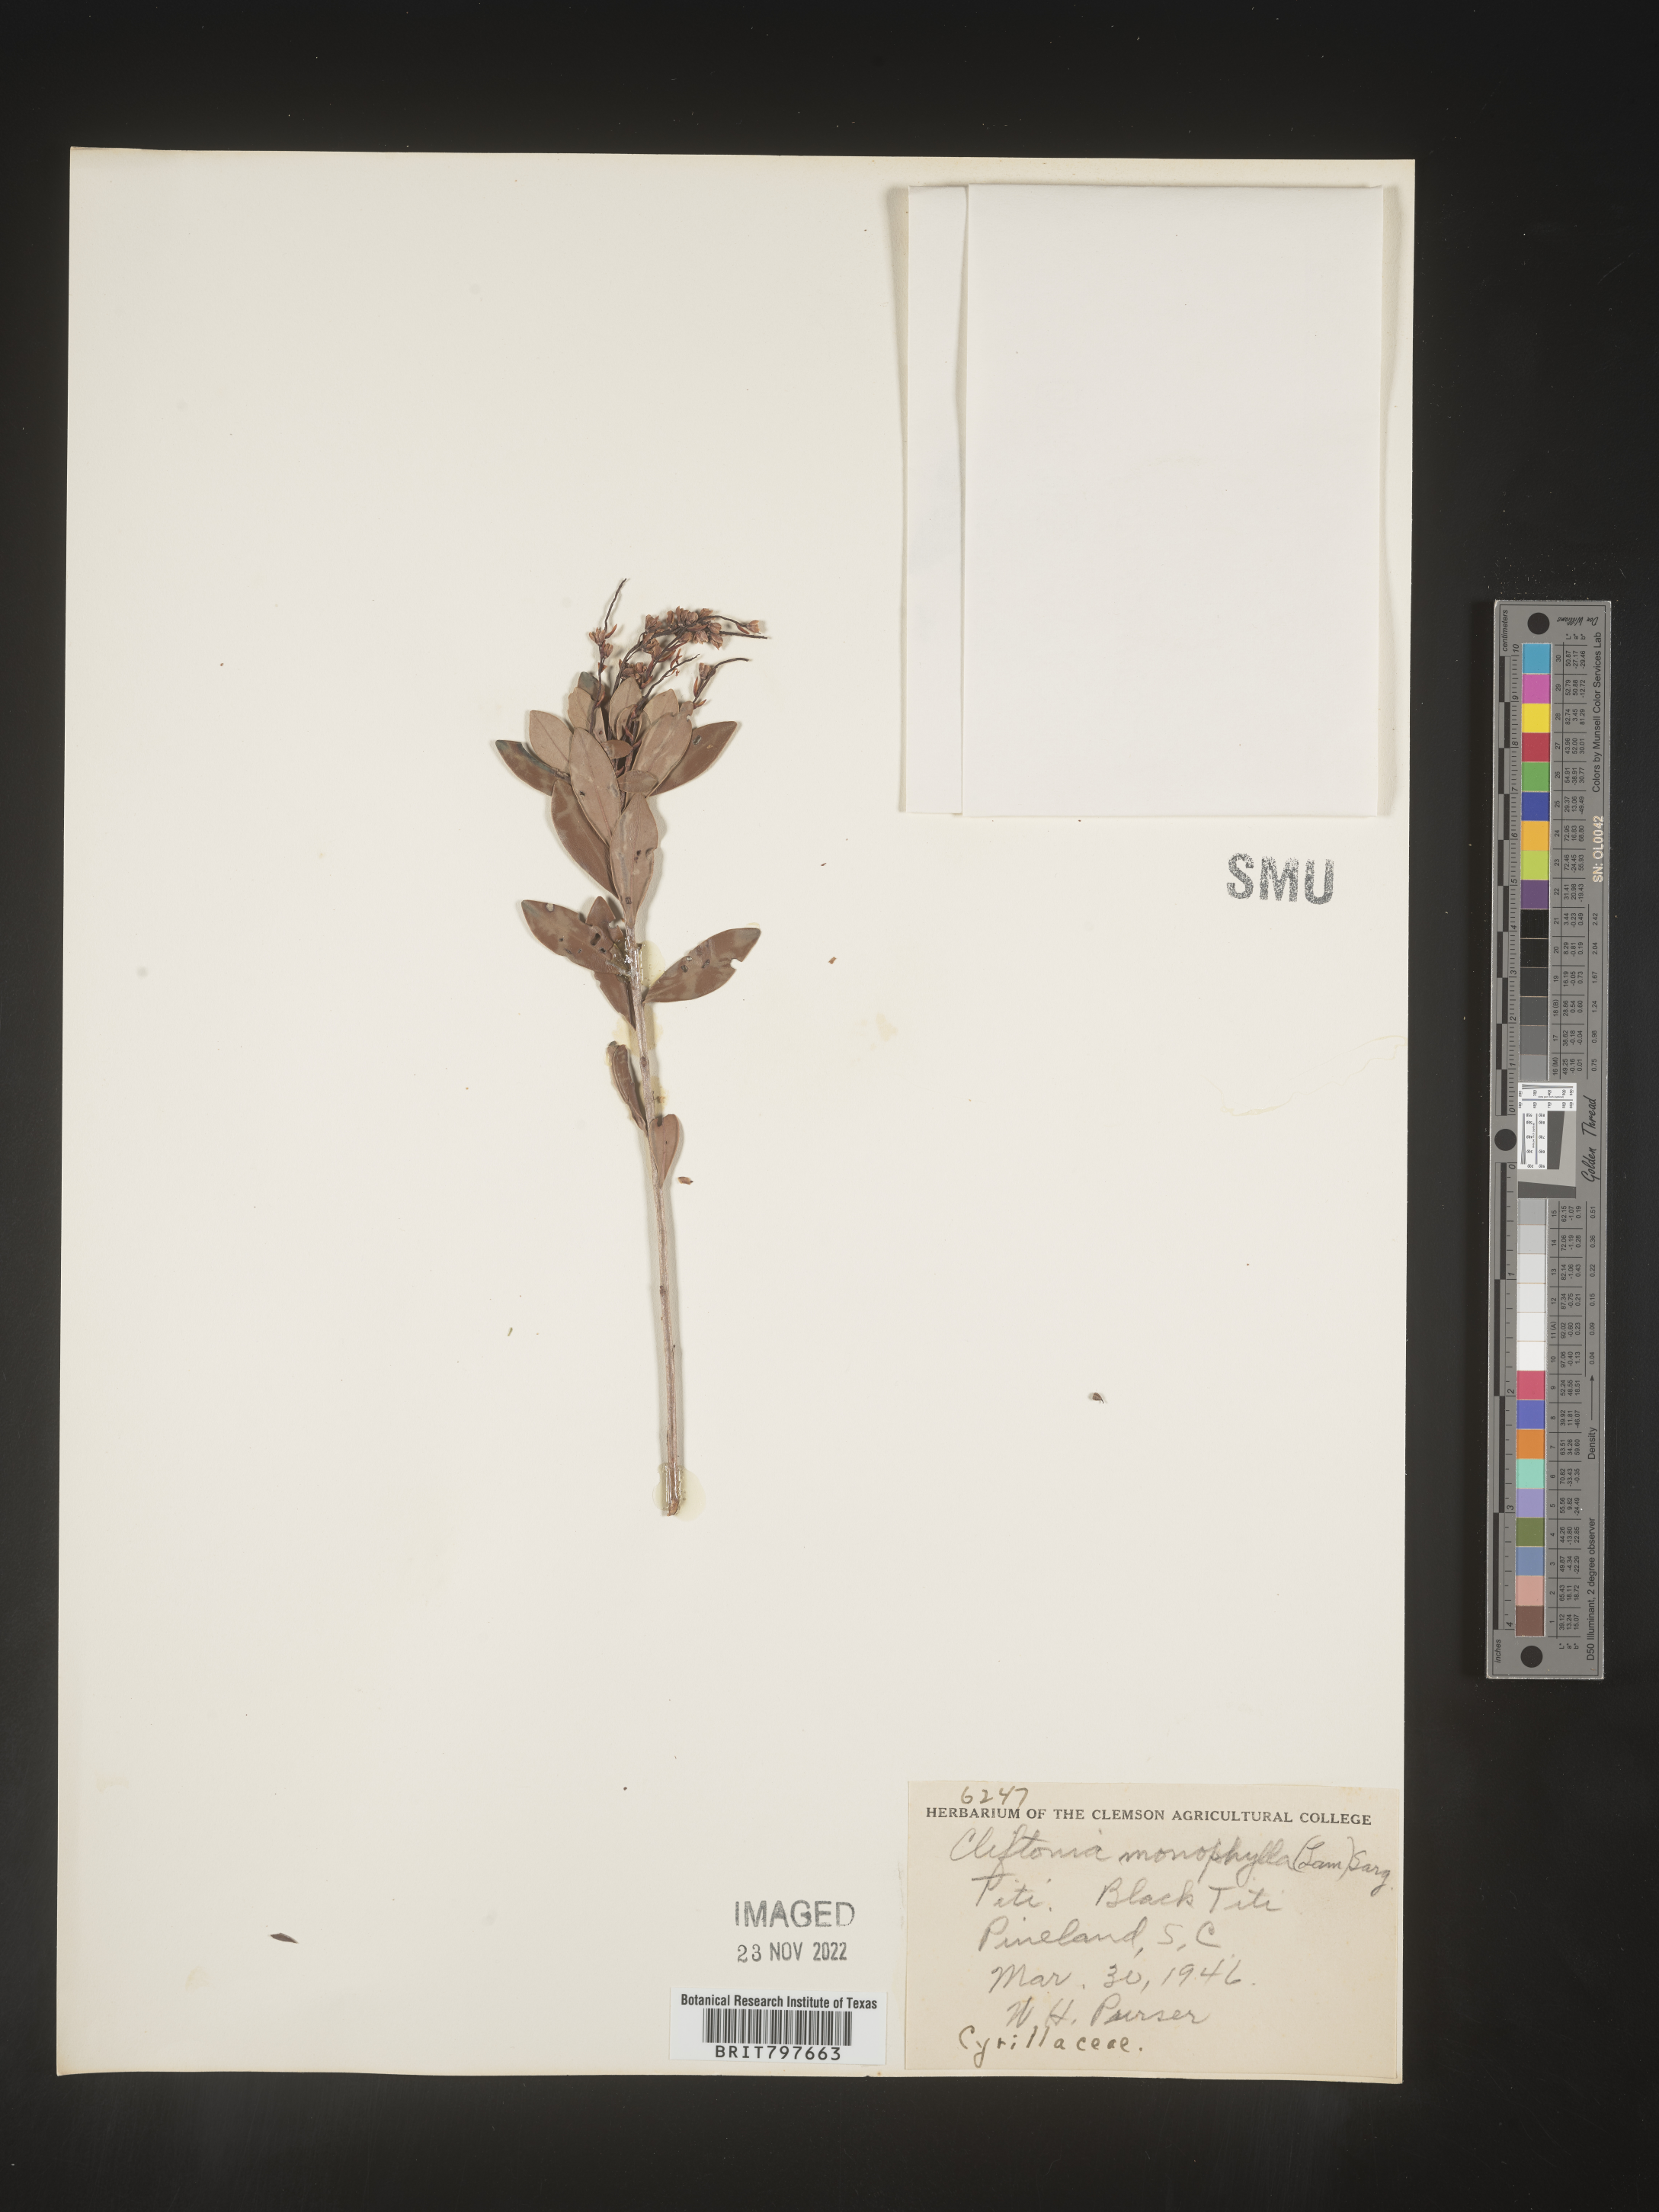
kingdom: Plantae
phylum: Tracheophyta
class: Magnoliopsida
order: Ericales
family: Cyrillaceae
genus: Cliftonia
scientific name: Cliftonia monophylla
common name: Titi
